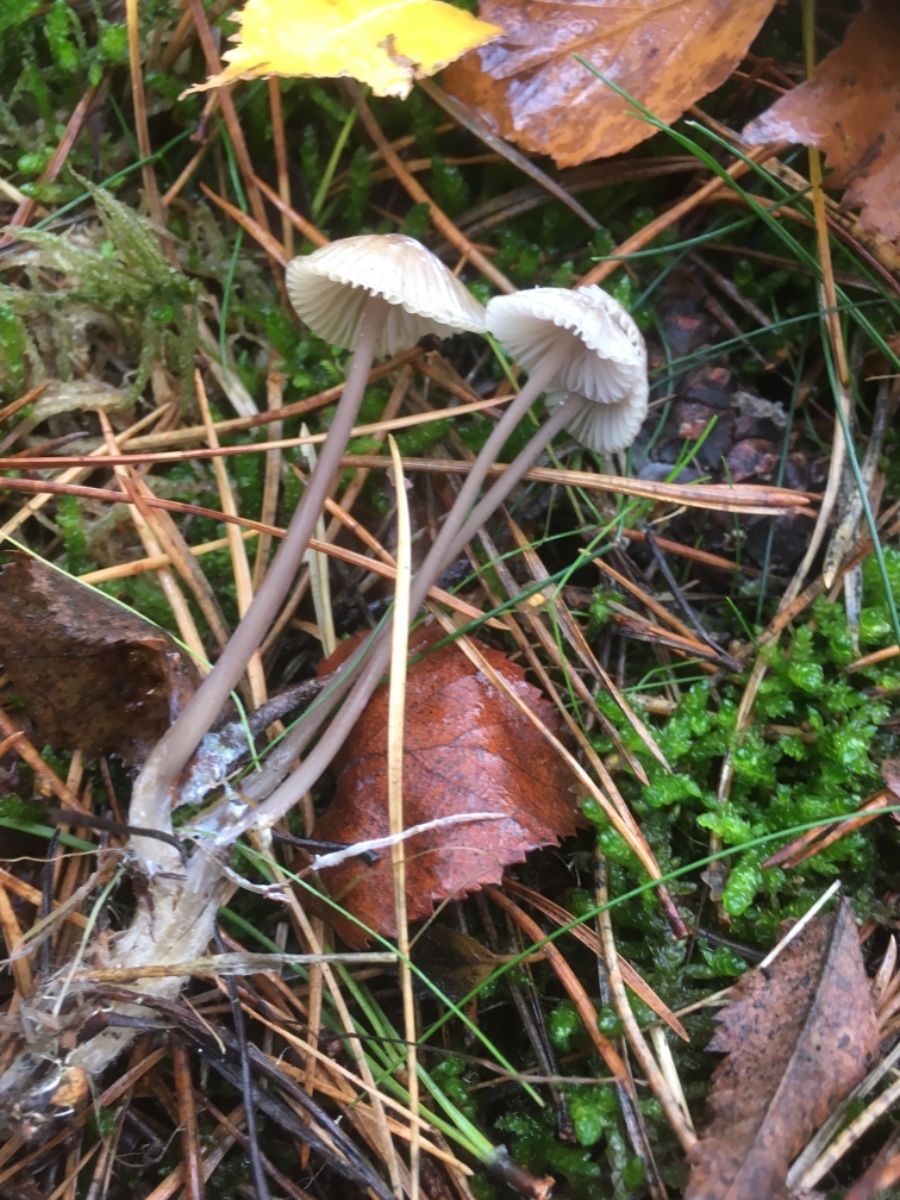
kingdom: Fungi
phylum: Basidiomycota
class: Agaricomycetes
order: Agaricales
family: Mycenaceae
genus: Mycena
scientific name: Mycena galopus
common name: hvidmælket huesvamp
